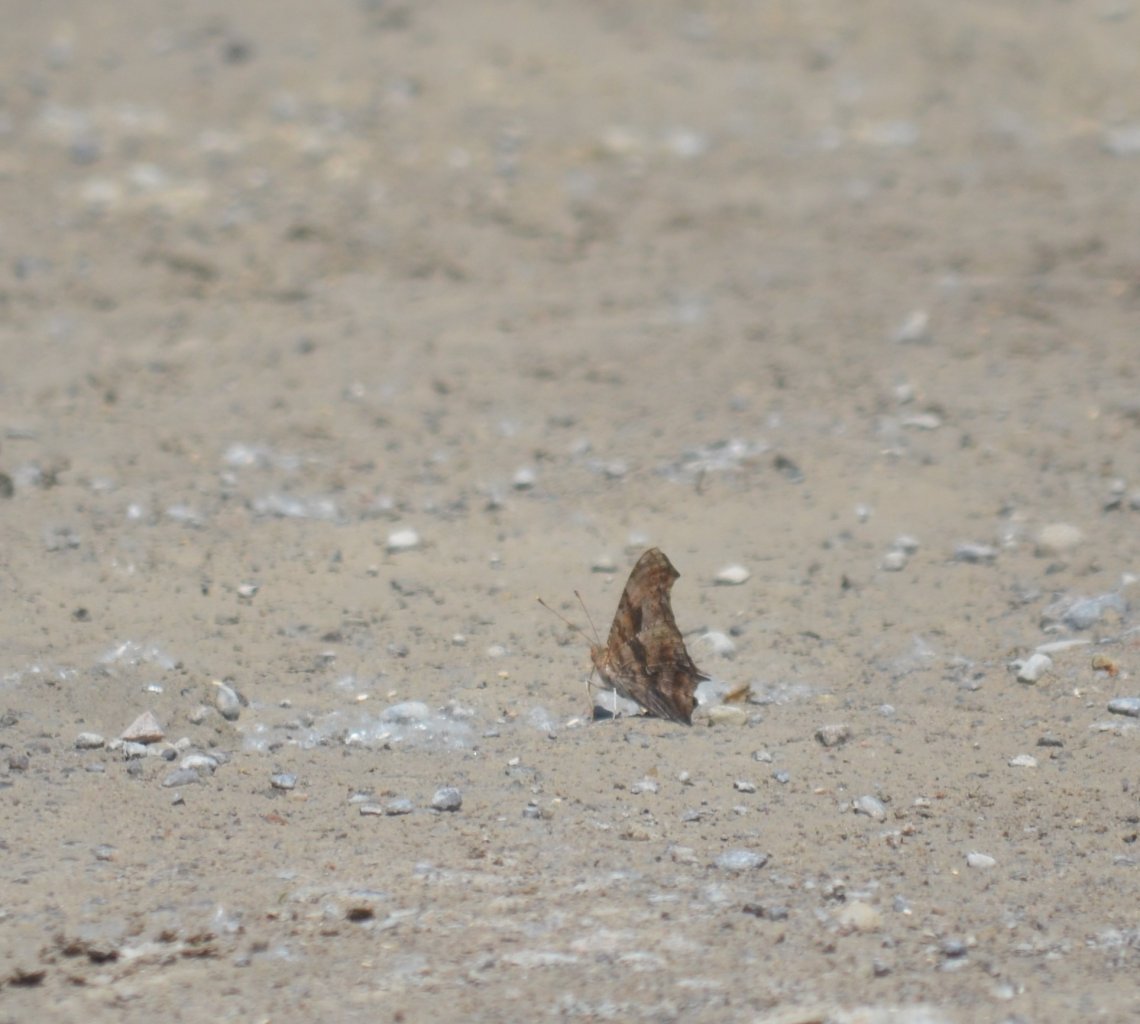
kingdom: Animalia
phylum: Arthropoda
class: Insecta
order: Lepidoptera
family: Nymphalidae
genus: Polygonia
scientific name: Polygonia interrogationis
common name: Question Mark
